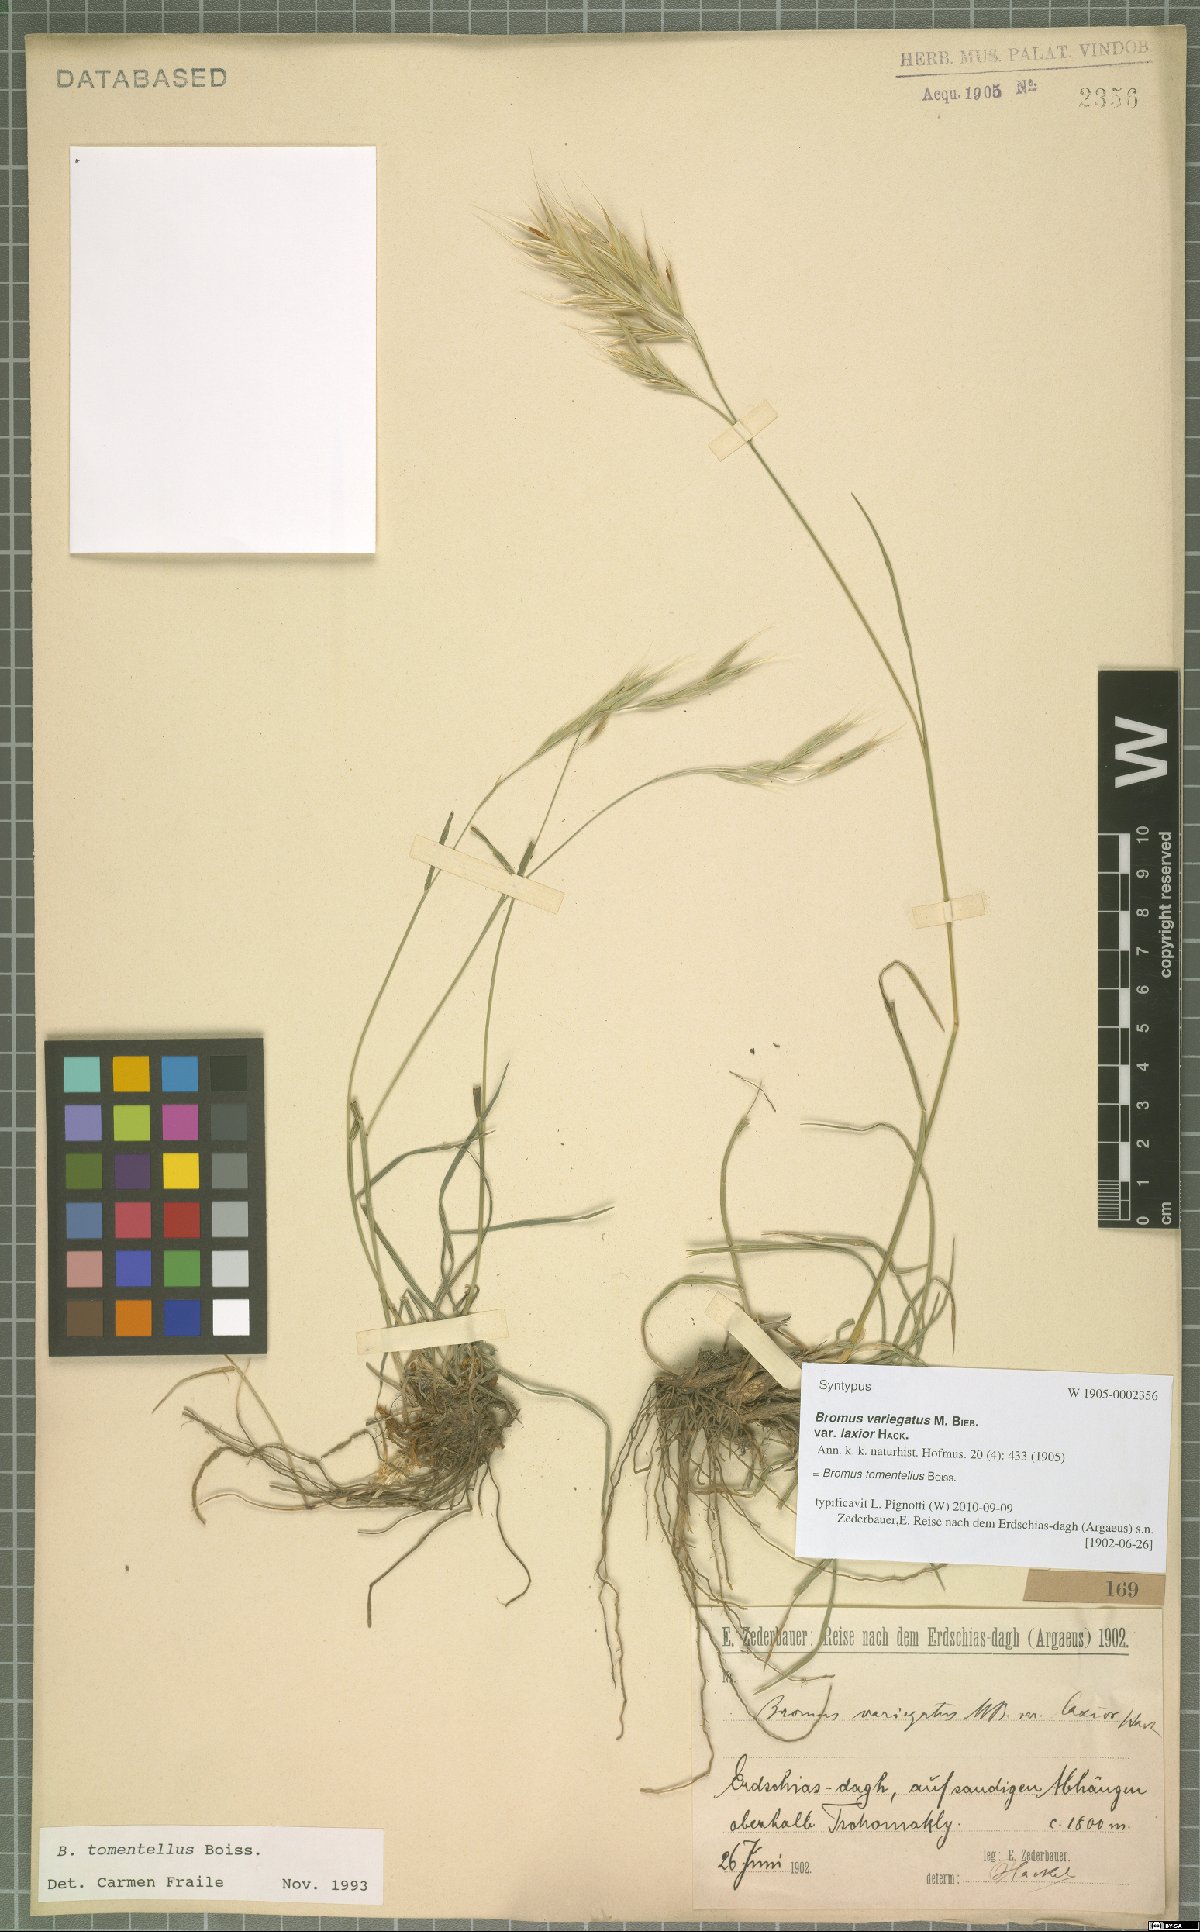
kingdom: Plantae
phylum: Tracheophyta
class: Liliopsida
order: Poales
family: Poaceae
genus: Bromus
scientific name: Bromus tomentellus
